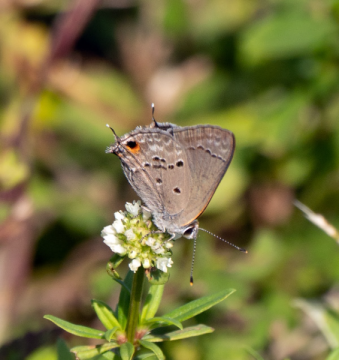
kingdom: Animalia
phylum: Arthropoda
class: Insecta
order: Lepidoptera
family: Lycaenidae
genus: Callicista
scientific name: Callicista columella
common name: Mallow Scrub-Hairstreak
